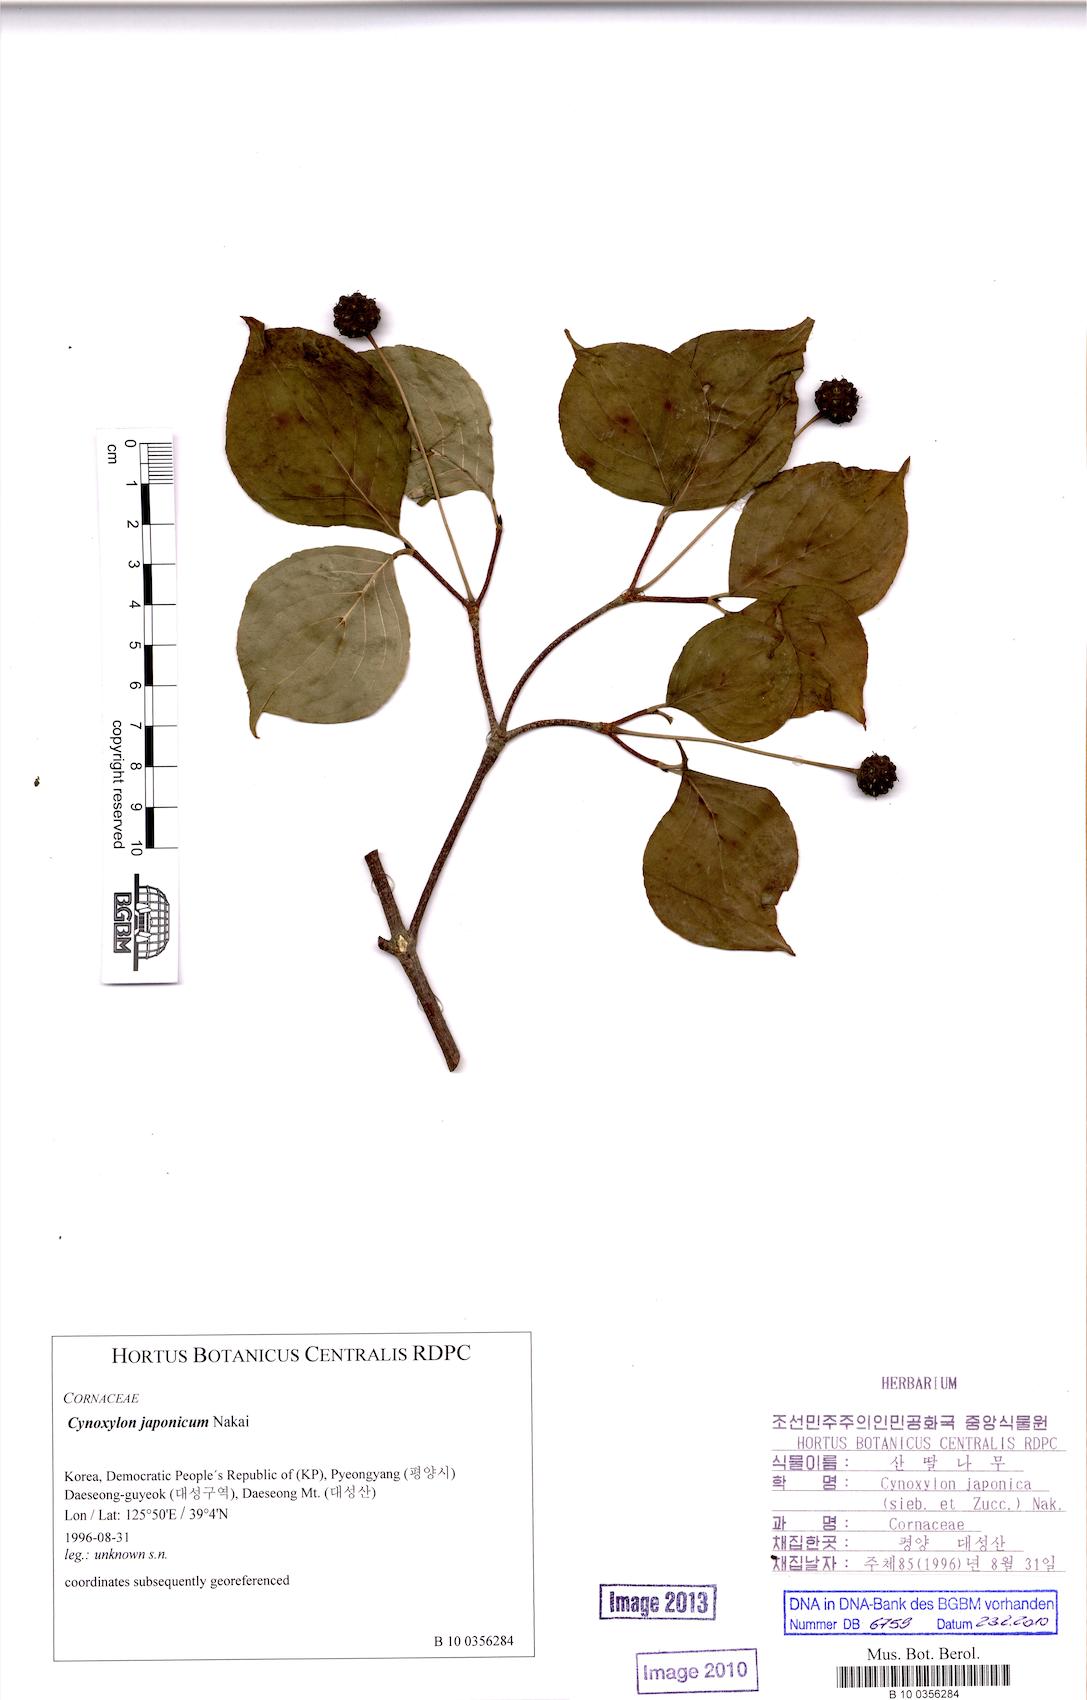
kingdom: Plantae
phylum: Tracheophyta
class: Magnoliopsida
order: Cornales
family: Cornaceae
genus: Cornus
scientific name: Cornus kousa
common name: Japanese dogwood
